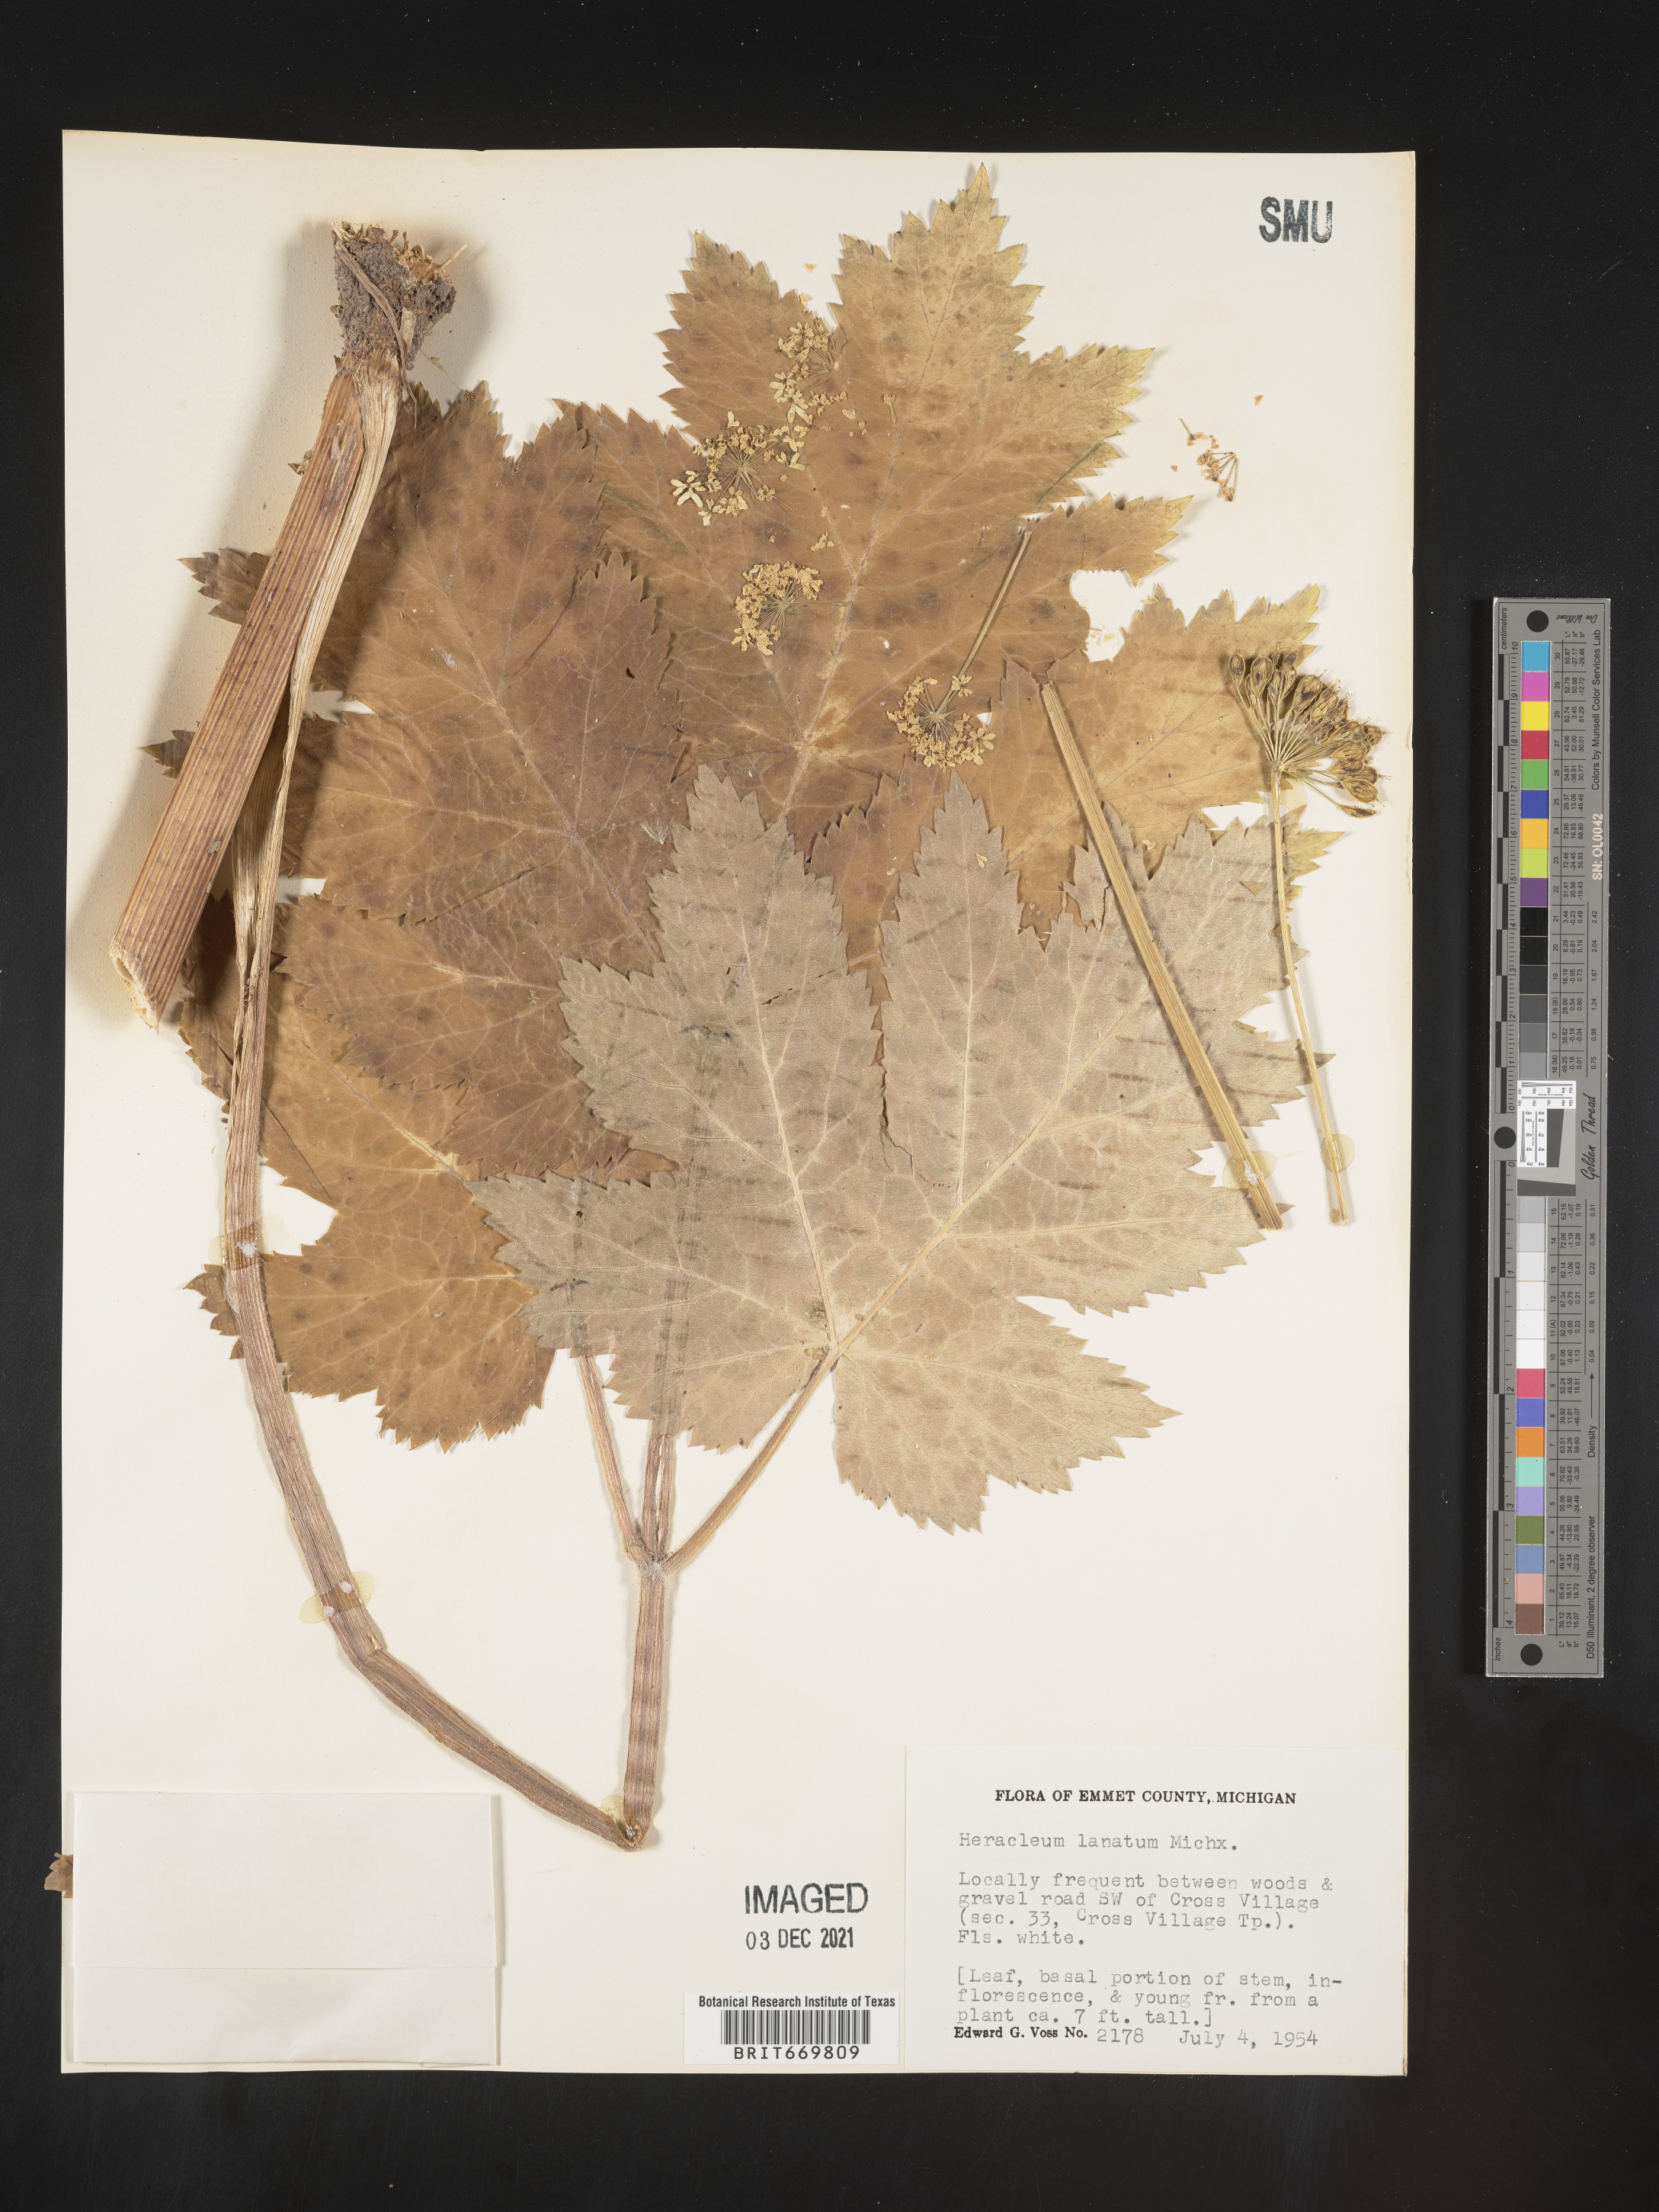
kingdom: Plantae
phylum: Tracheophyta
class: Magnoliopsida
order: Apiales
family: Apiaceae
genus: Heracleum
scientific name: Heracleum maximum
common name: American cow parsnip
